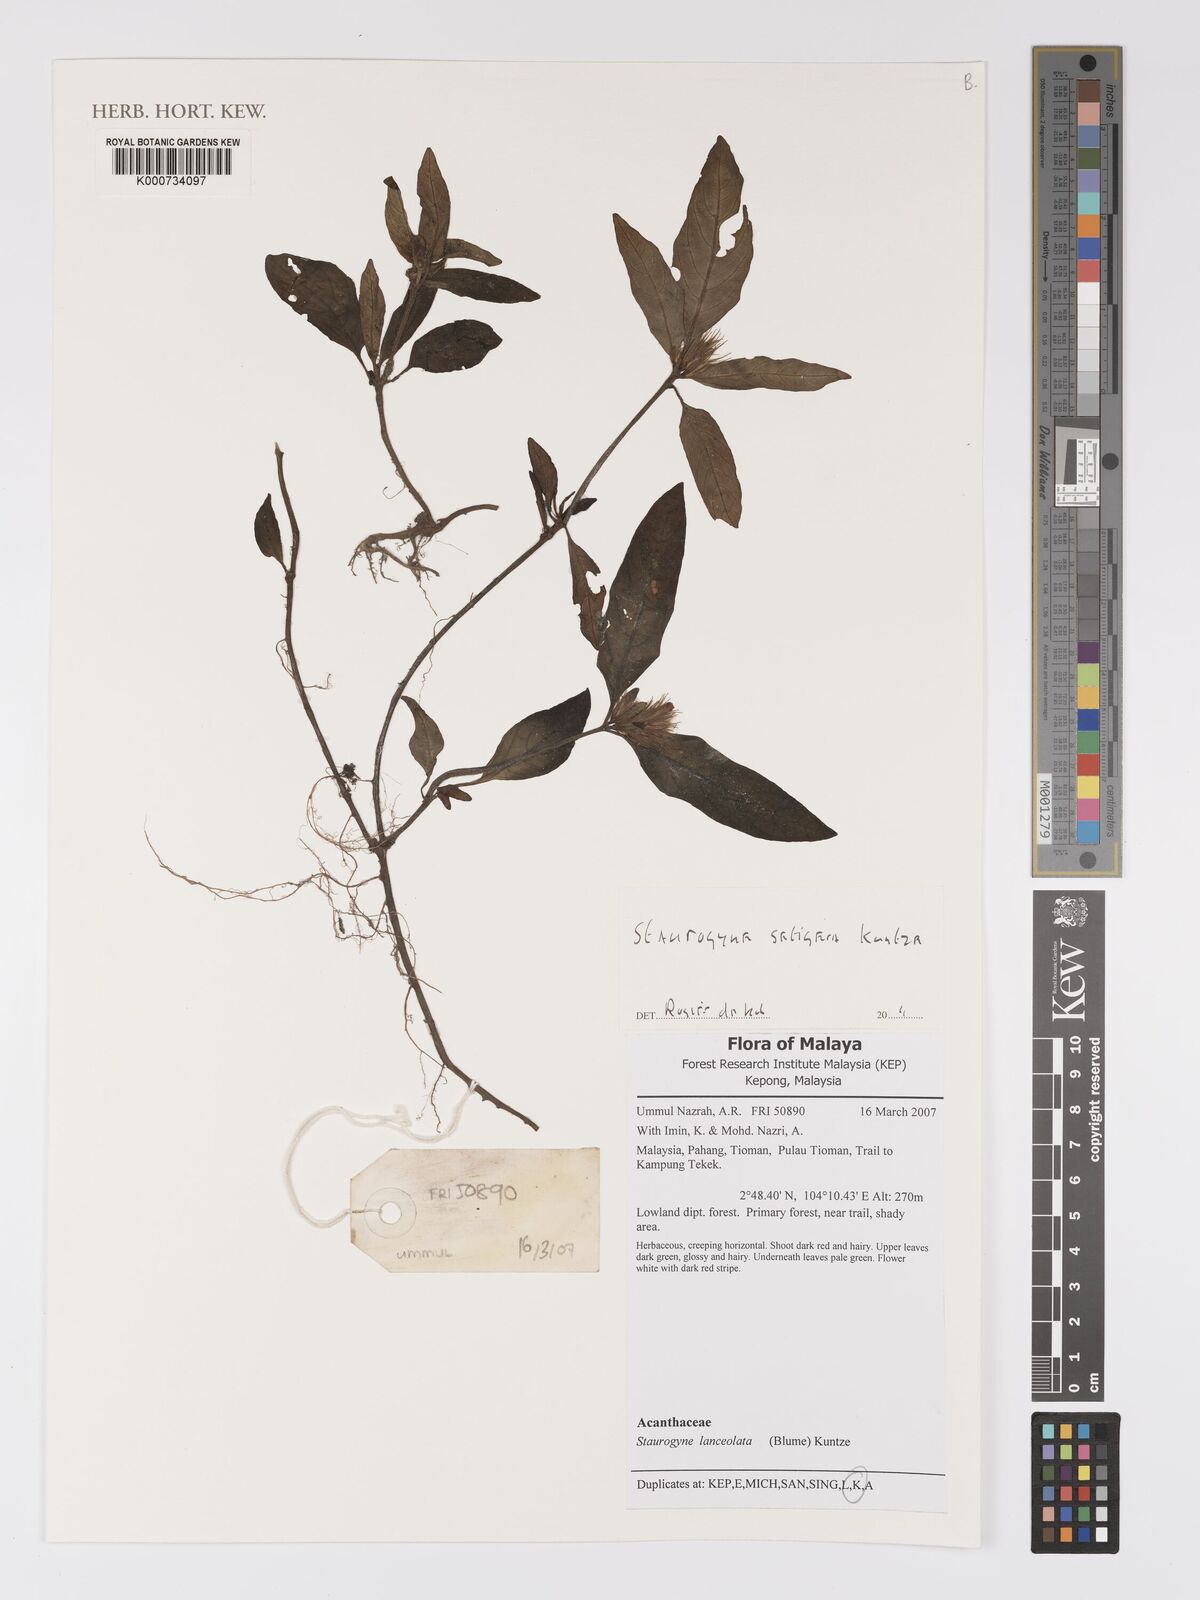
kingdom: Plantae
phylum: Tracheophyta
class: Magnoliopsida
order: Lamiales
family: Acanthaceae
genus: Staurogyne
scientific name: Staurogyne setigera
